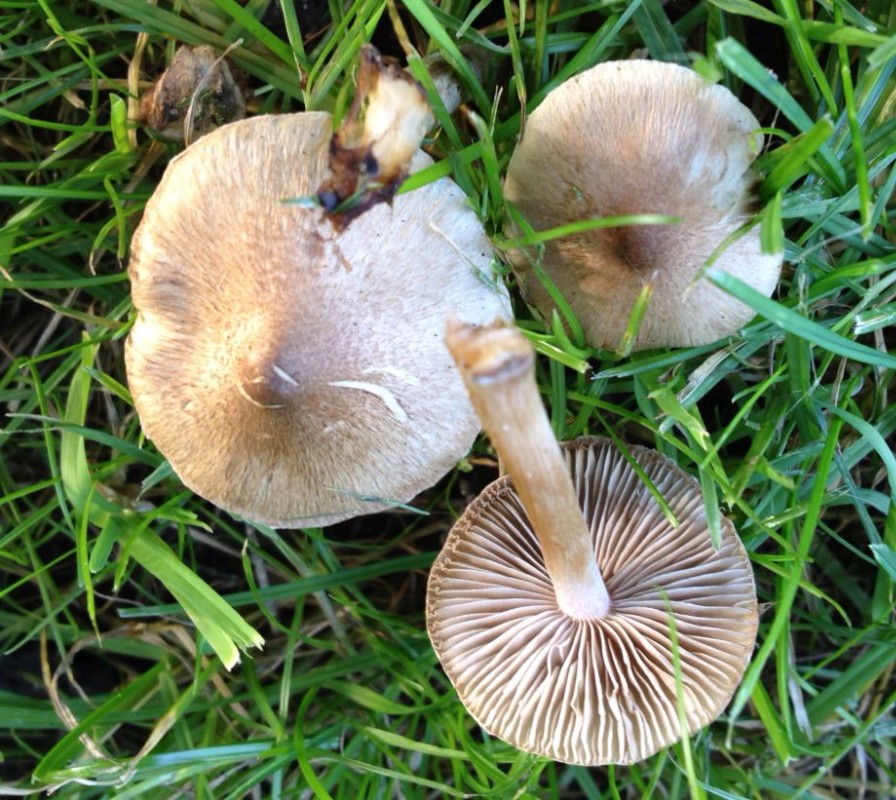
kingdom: Fungi
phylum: Basidiomycota
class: Agaricomycetes
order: Agaricales
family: Inocybaceae
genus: Inocybe
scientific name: Inocybe
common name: trævlhat
